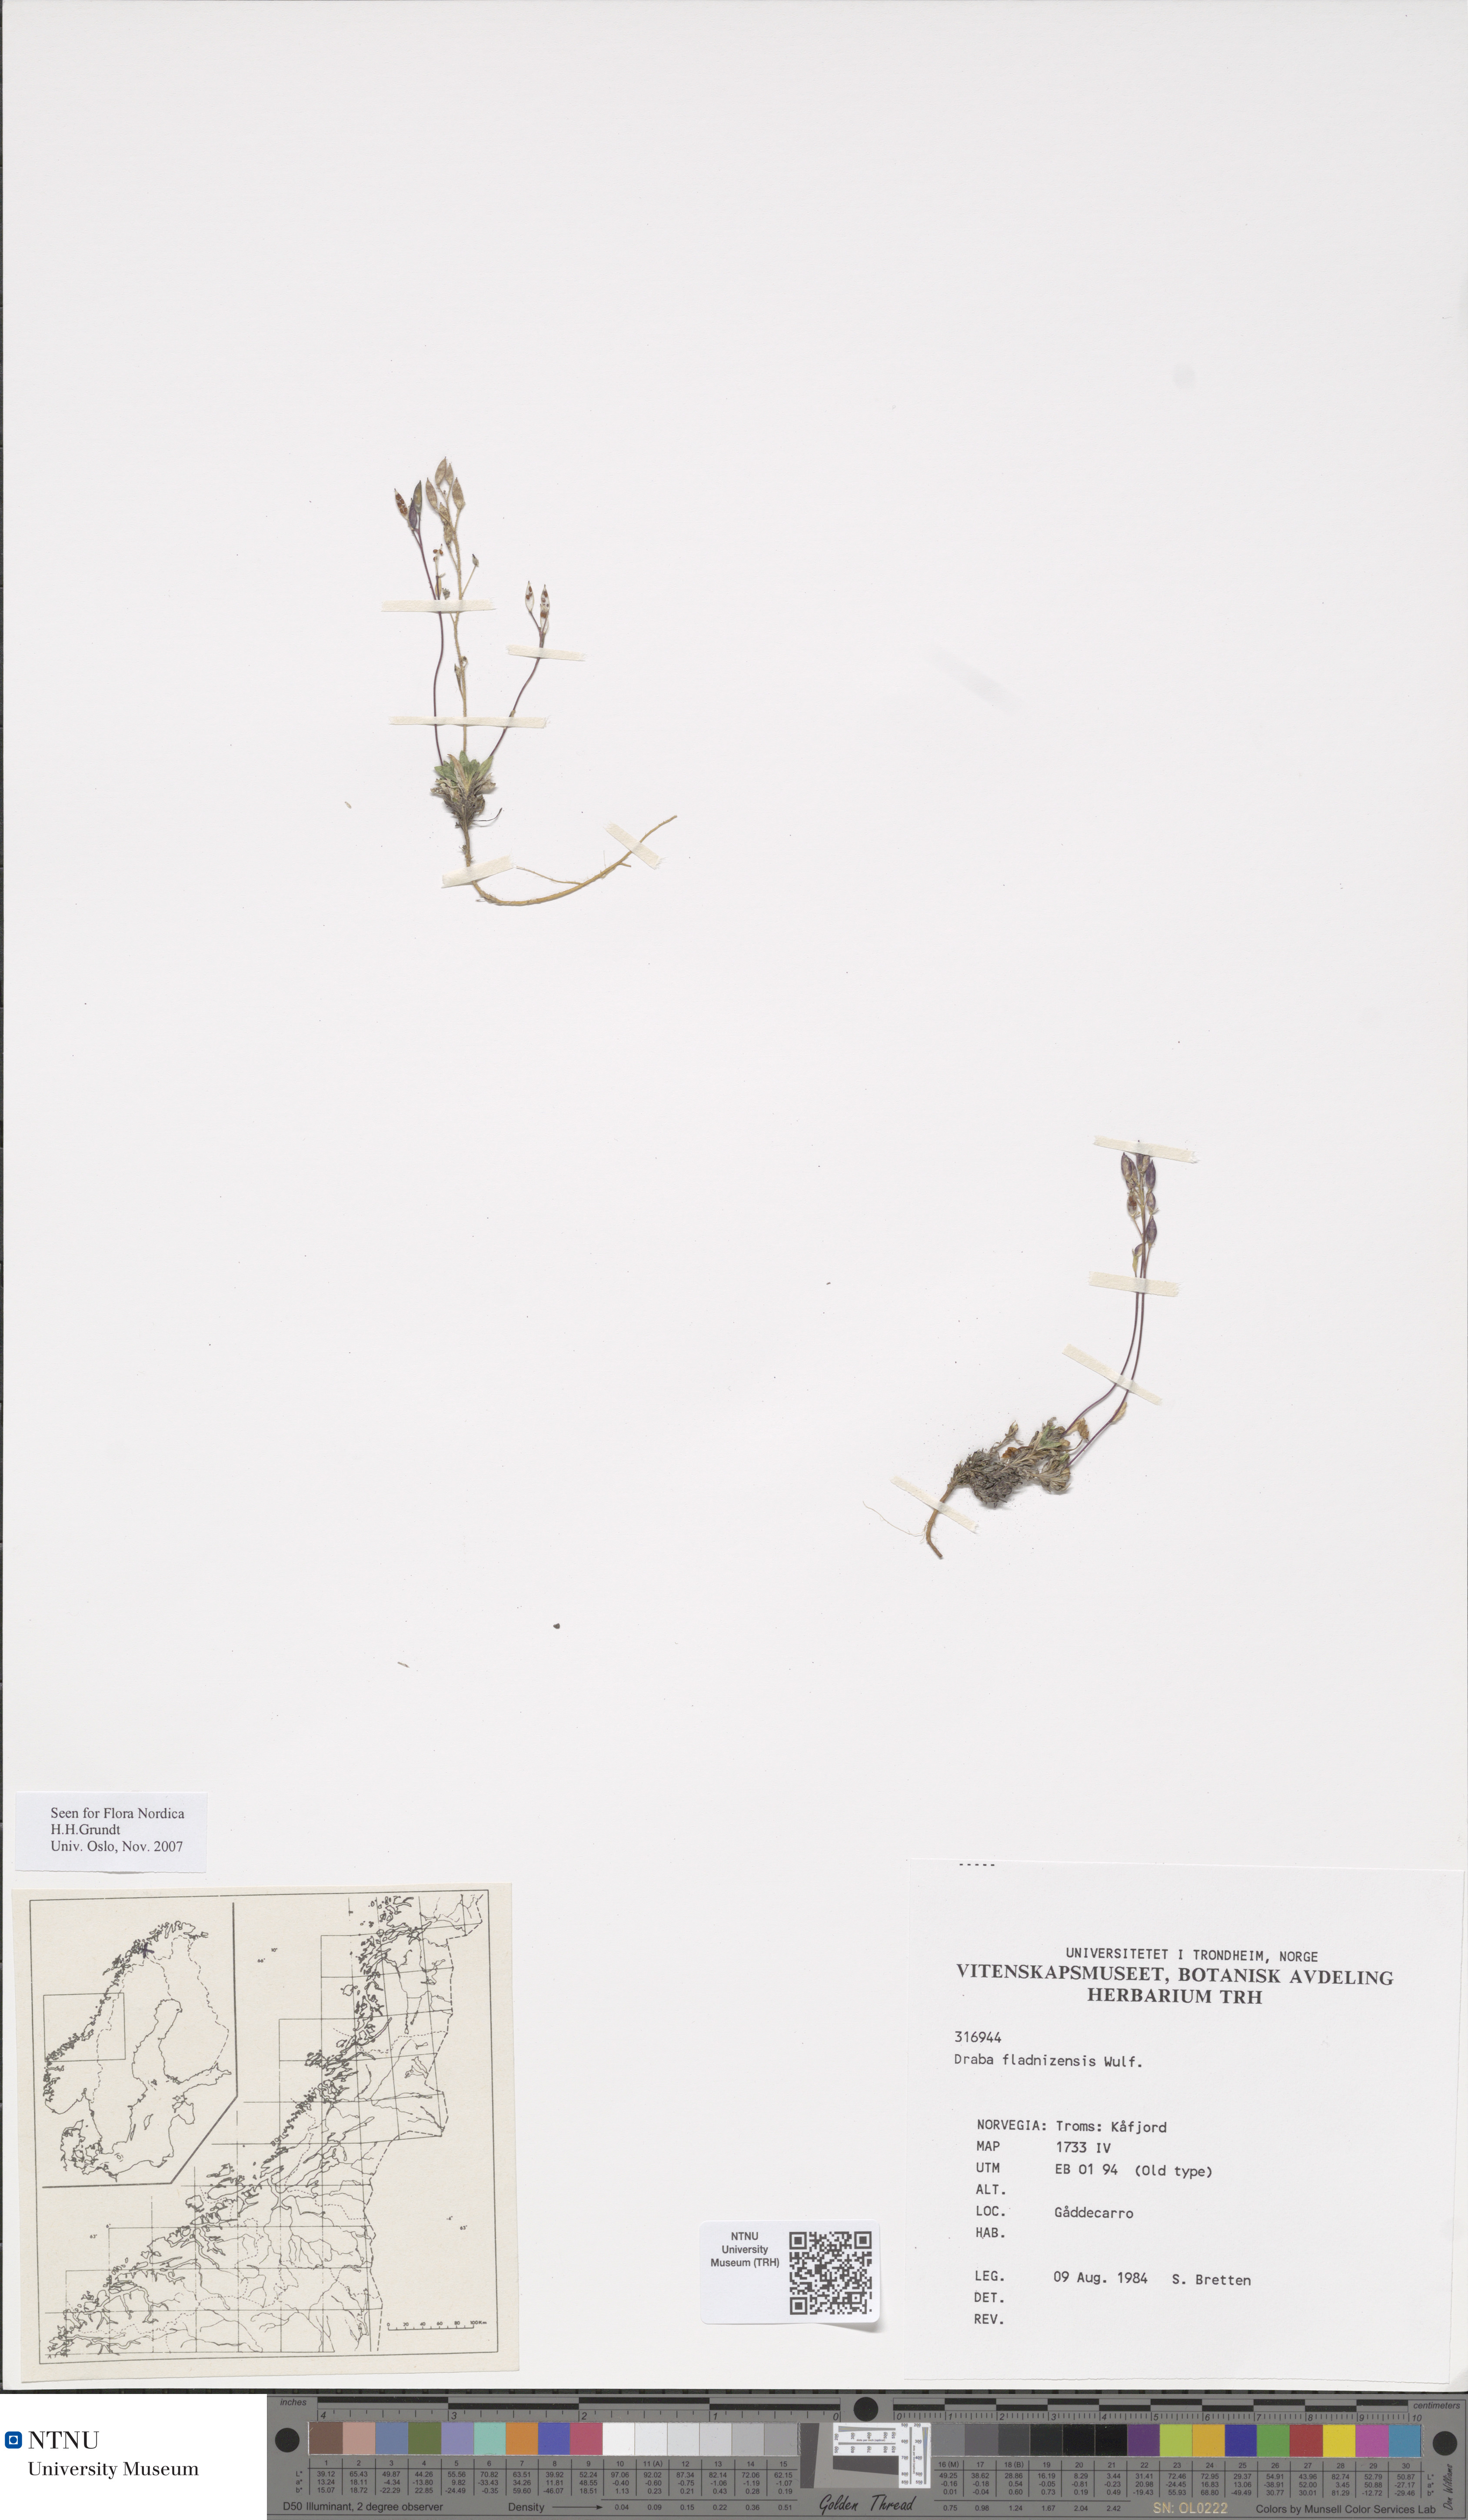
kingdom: Plantae
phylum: Tracheophyta
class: Magnoliopsida
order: Brassicales
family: Brassicaceae
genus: Draba
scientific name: Draba fladnizensis
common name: Austrian draba
